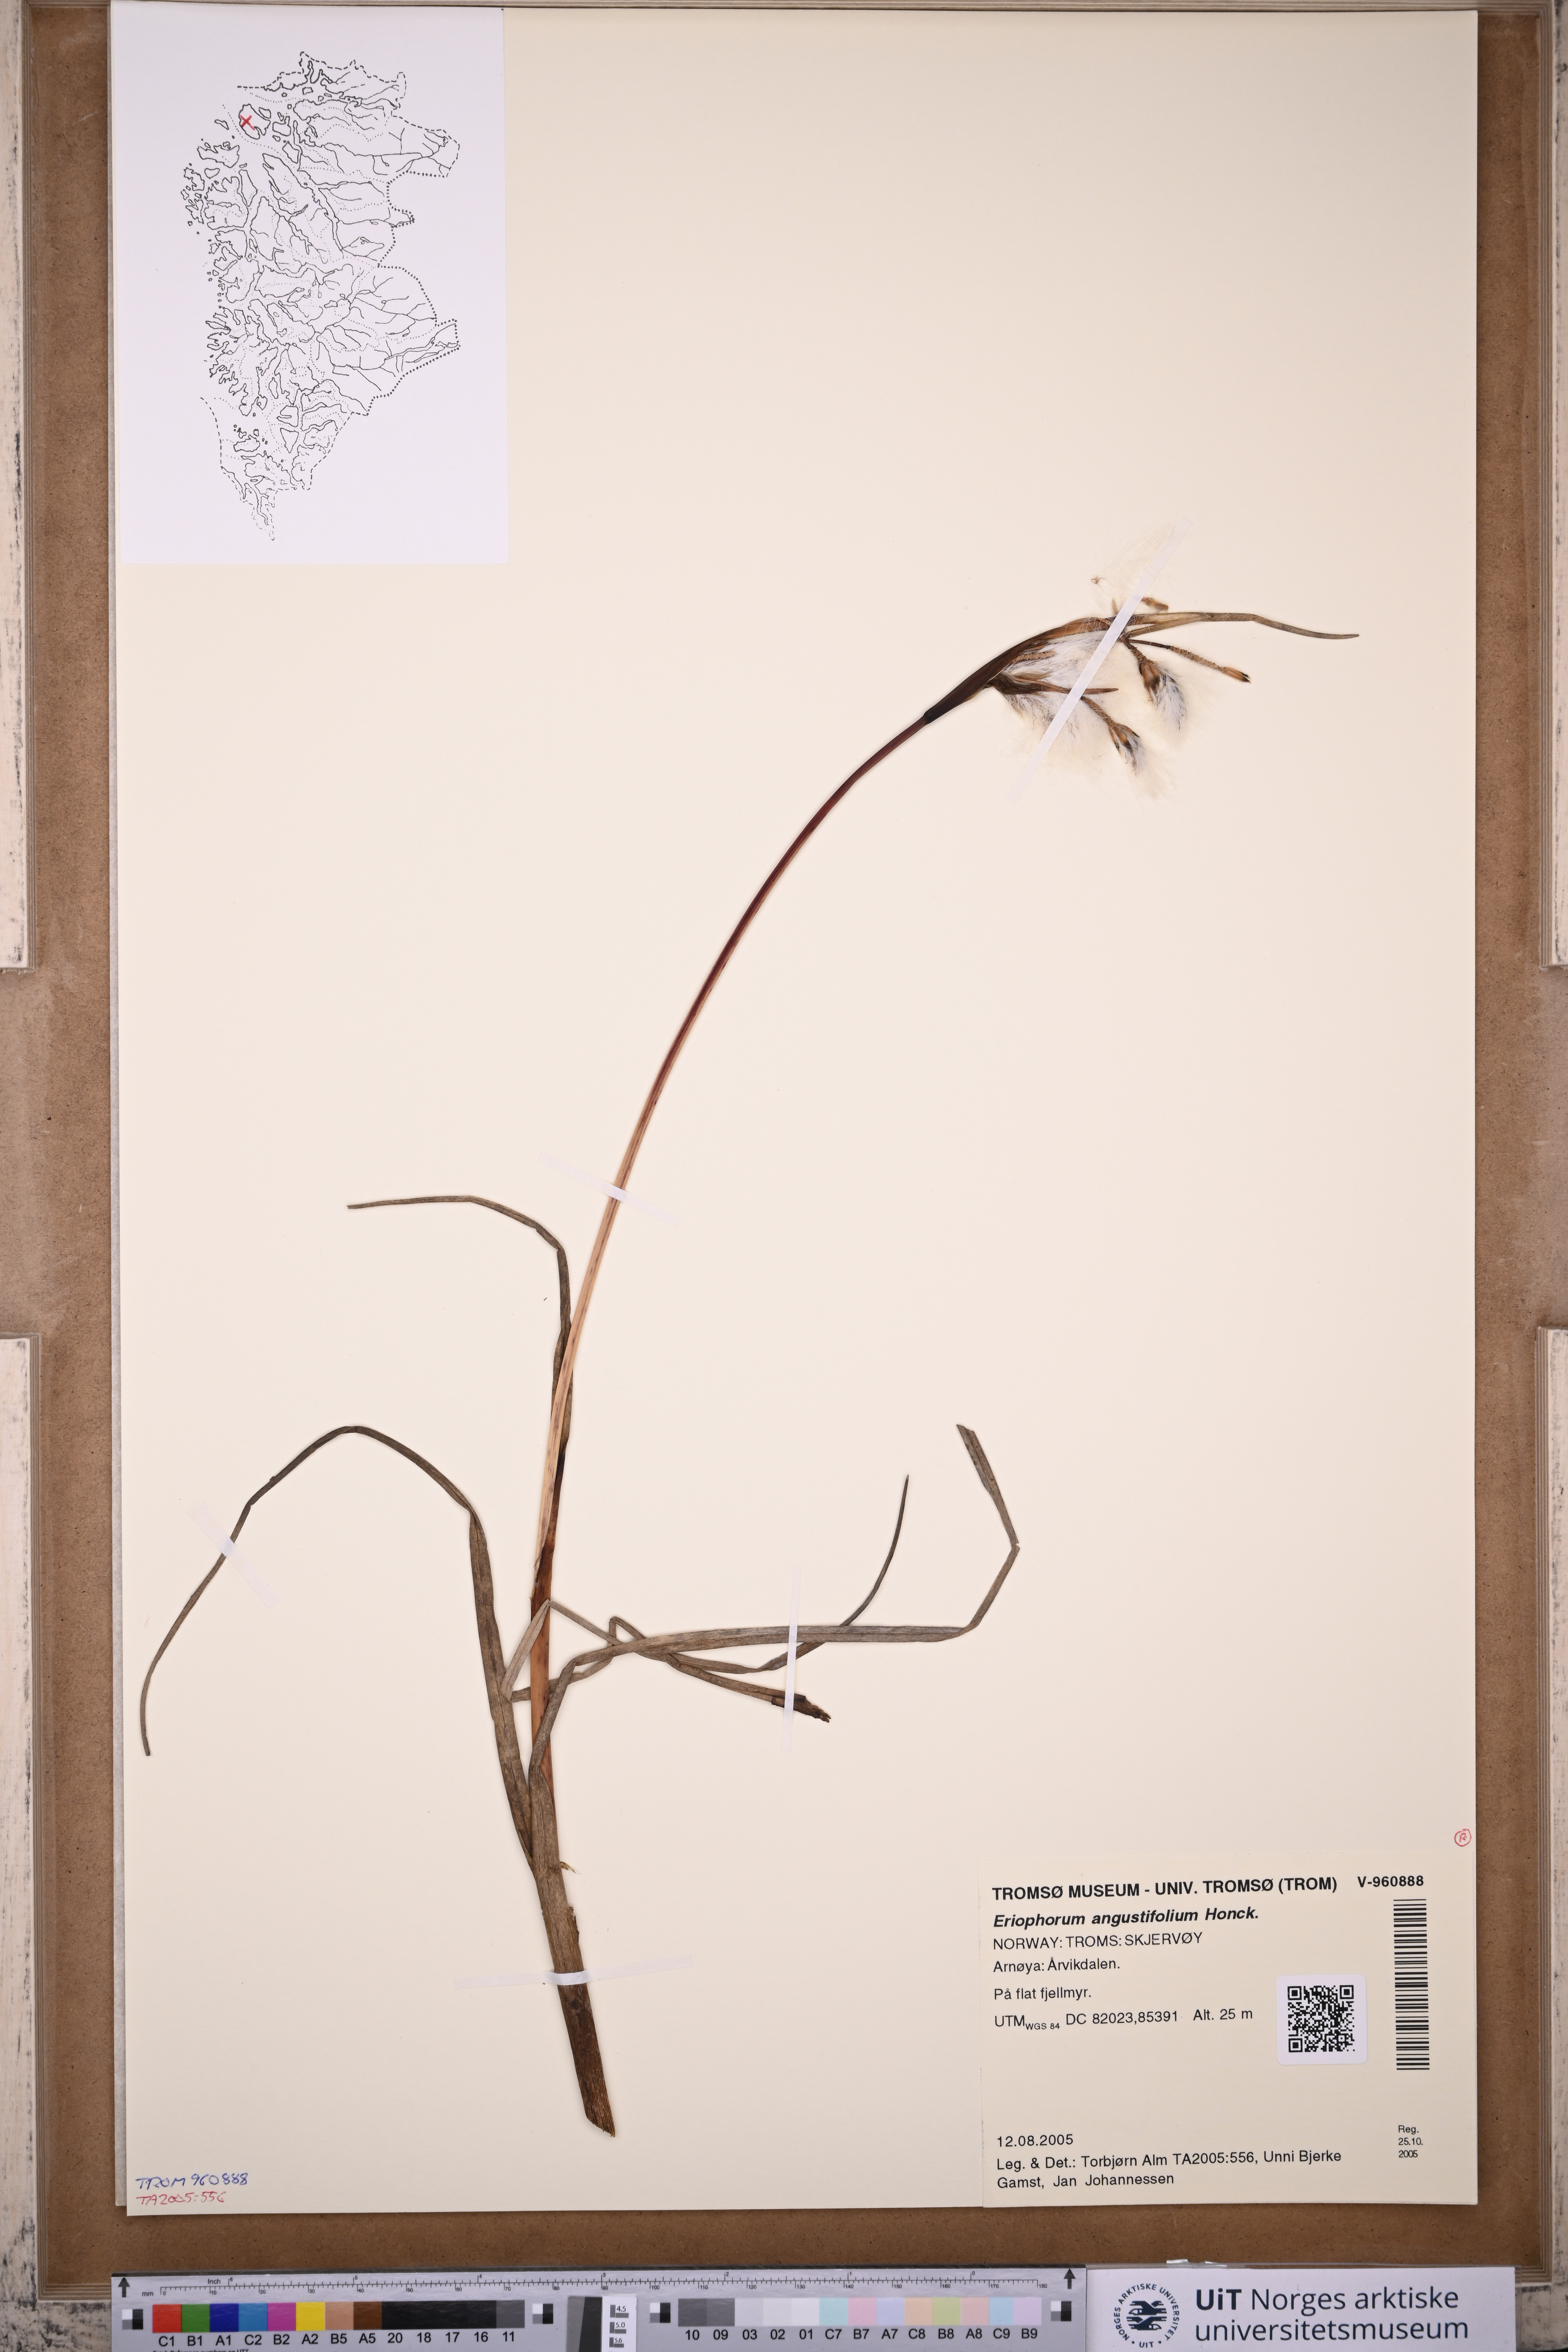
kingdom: Plantae
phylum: Tracheophyta
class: Liliopsida
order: Poales
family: Cyperaceae
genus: Eriophorum
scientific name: Eriophorum angustifolium
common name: Common cottongrass
